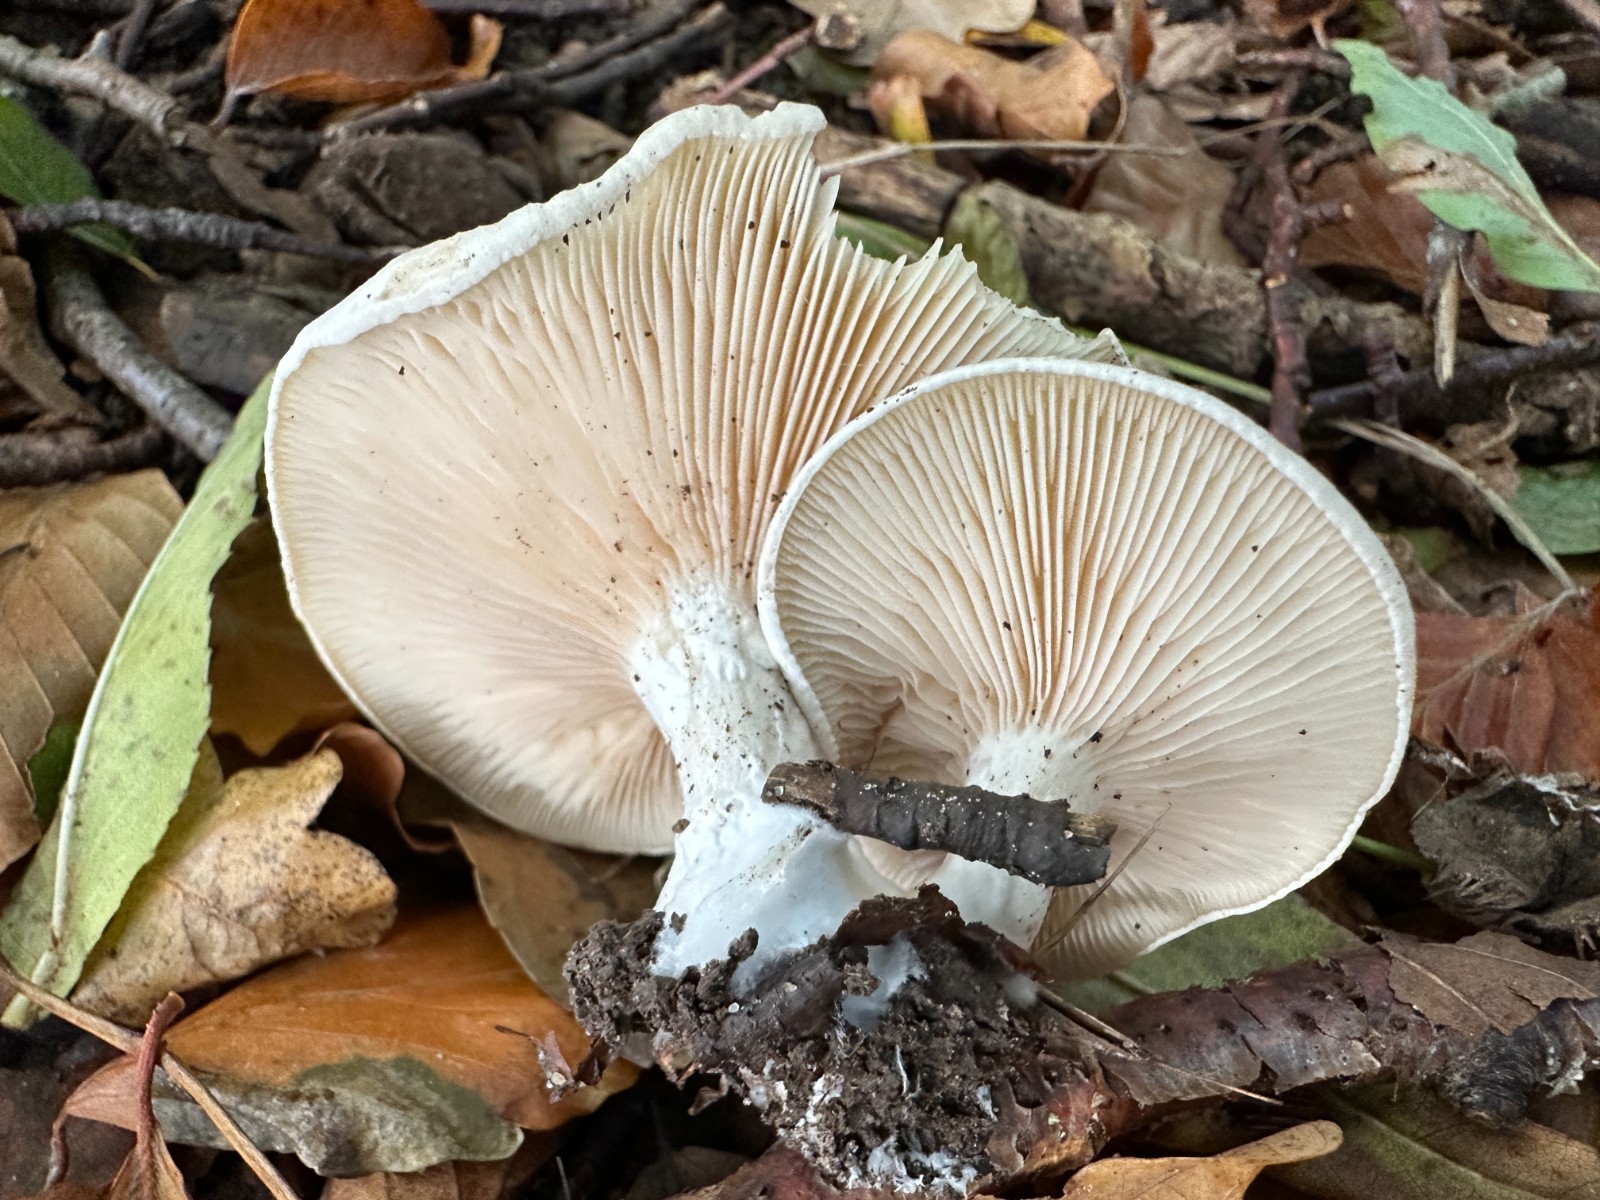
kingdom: Fungi
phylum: Basidiomycota
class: Agaricomycetes
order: Agaricales
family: Entolomataceae
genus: Clitopilus
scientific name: Clitopilus prunulus
